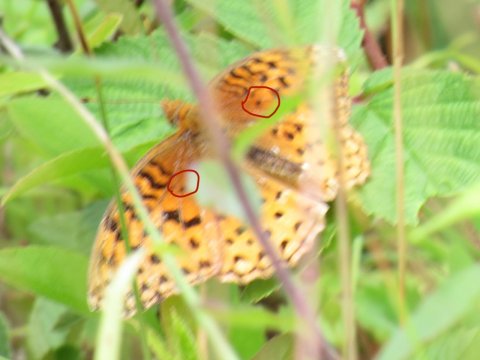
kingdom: Animalia
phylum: Arthropoda
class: Insecta
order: Lepidoptera
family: Nymphalidae
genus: Speyeria
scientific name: Speyeria aphrodite
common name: Aphrodite Fritillary
